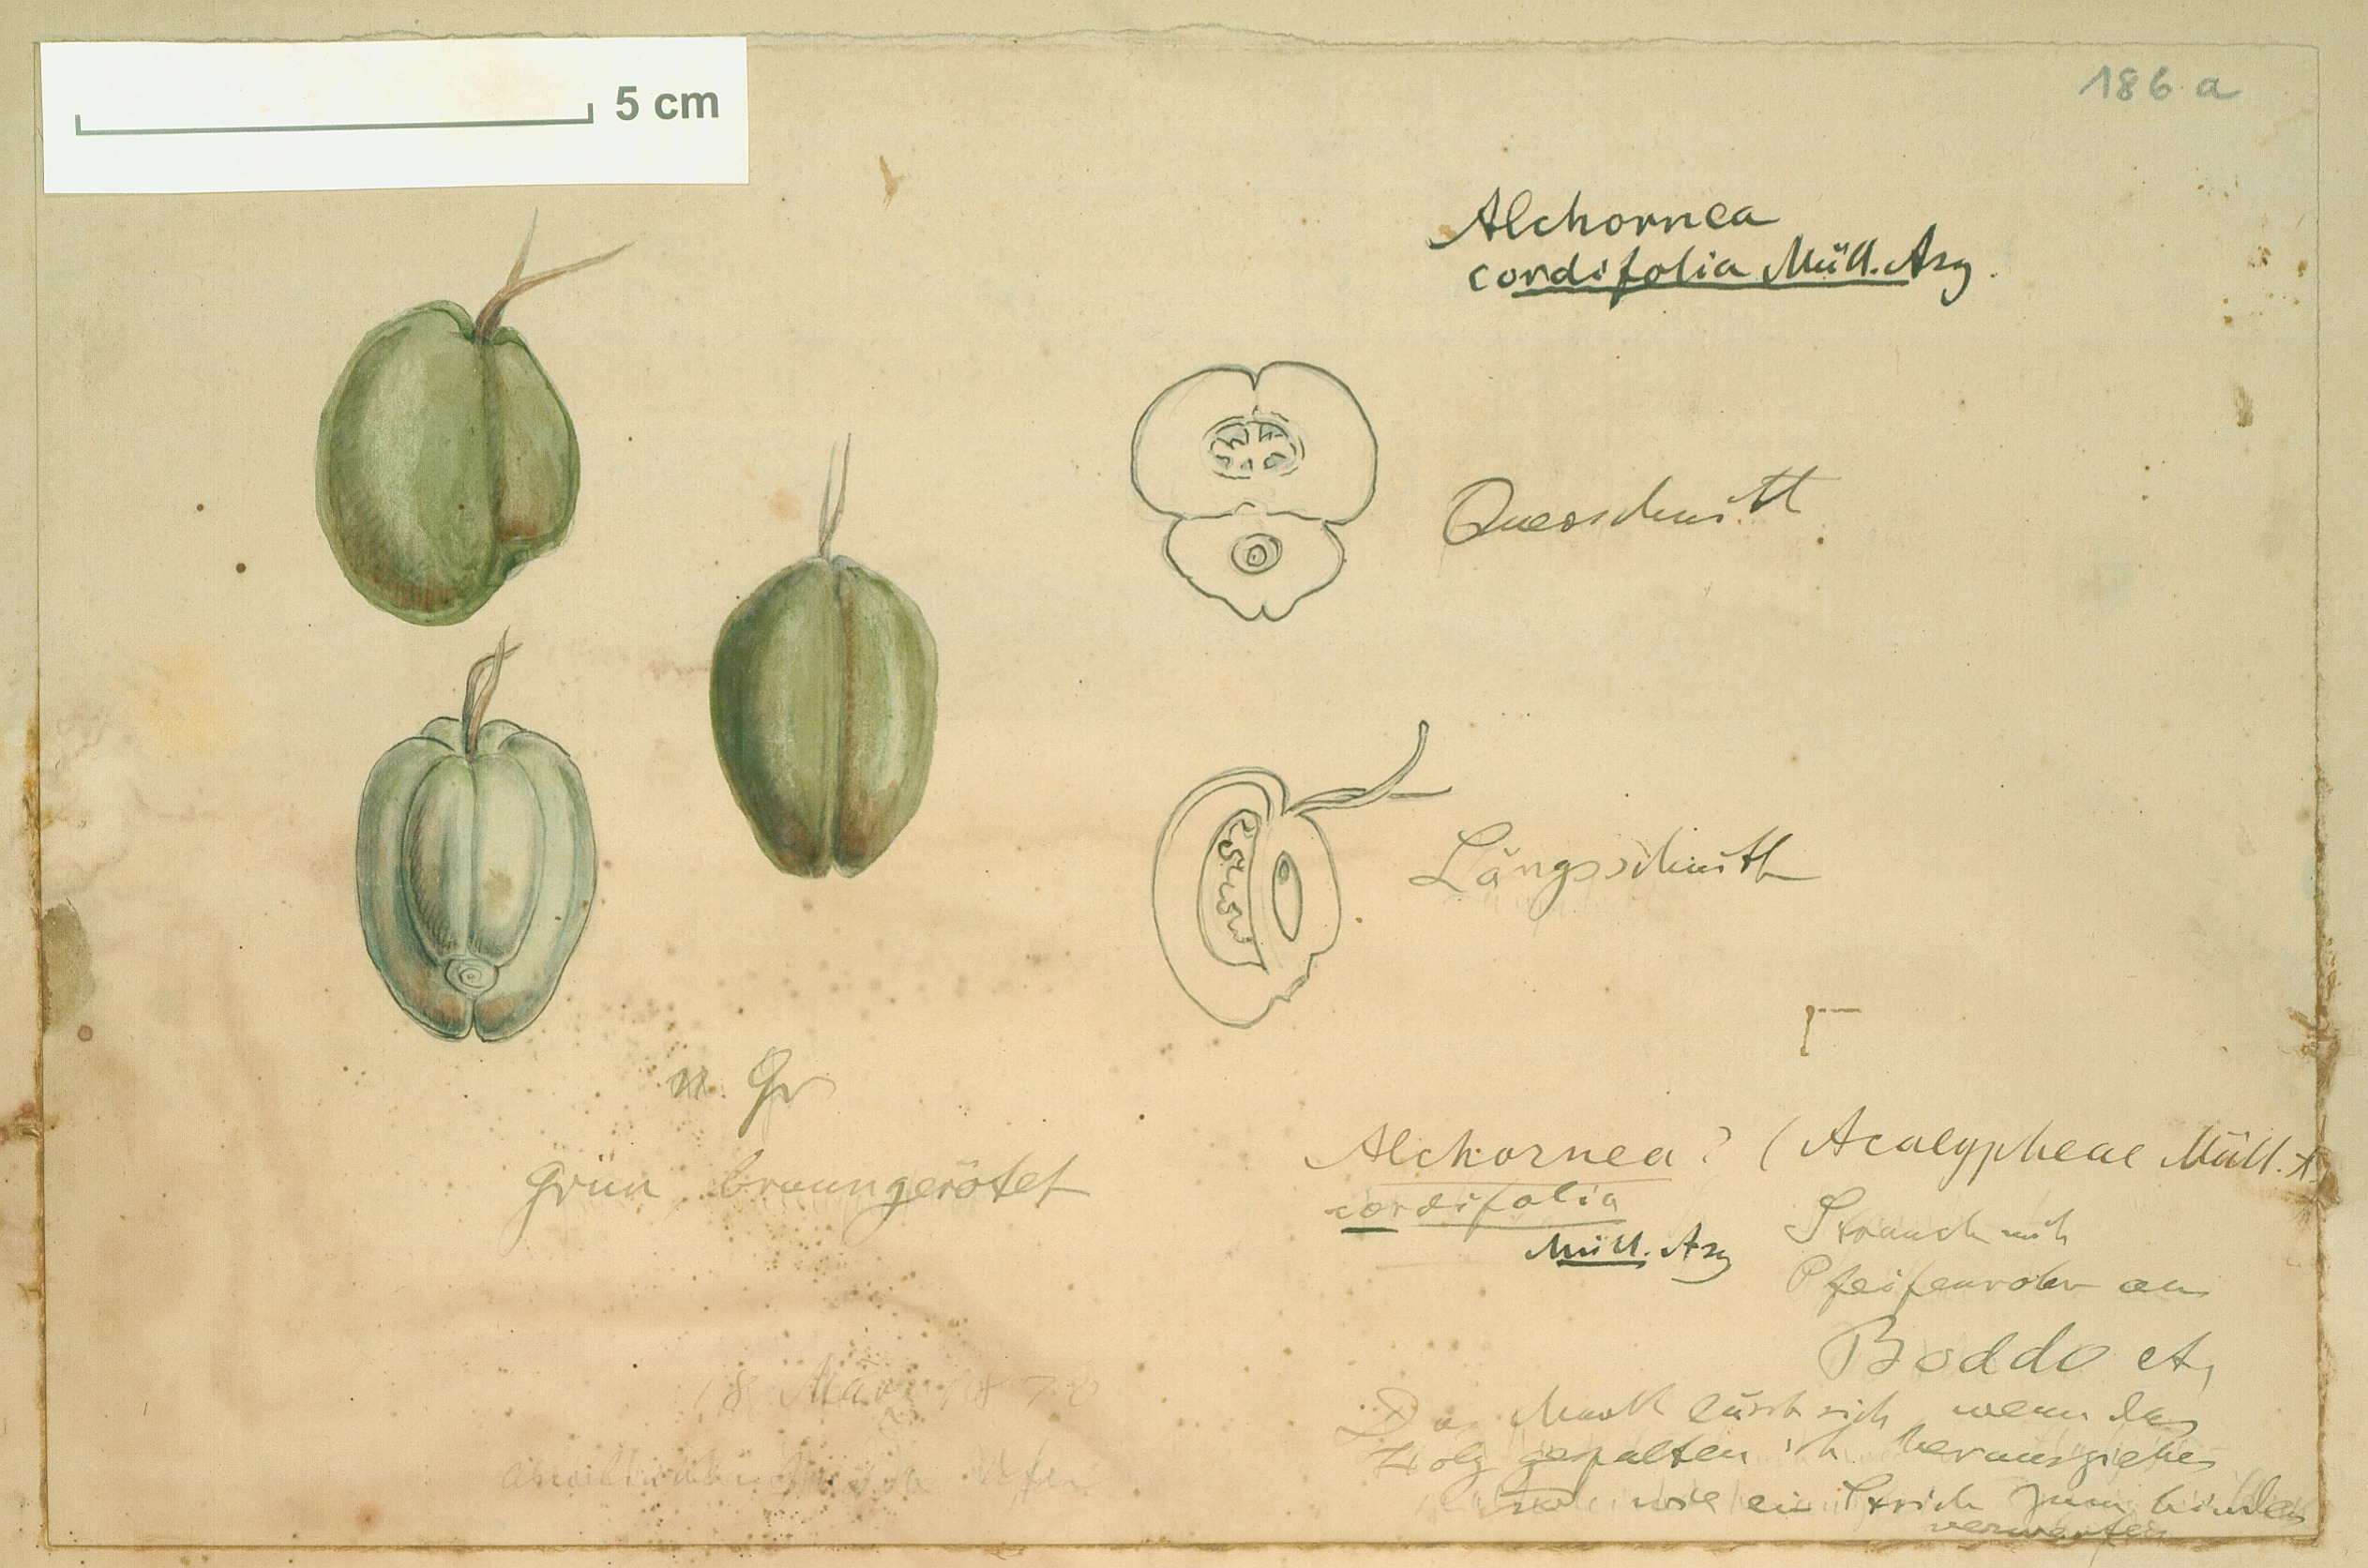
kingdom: Plantae
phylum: Tracheophyta
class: Magnoliopsida
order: Malpighiales
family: Euphorbiaceae
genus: Alchornea
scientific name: Alchornea cordifolia
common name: Christmasbush
